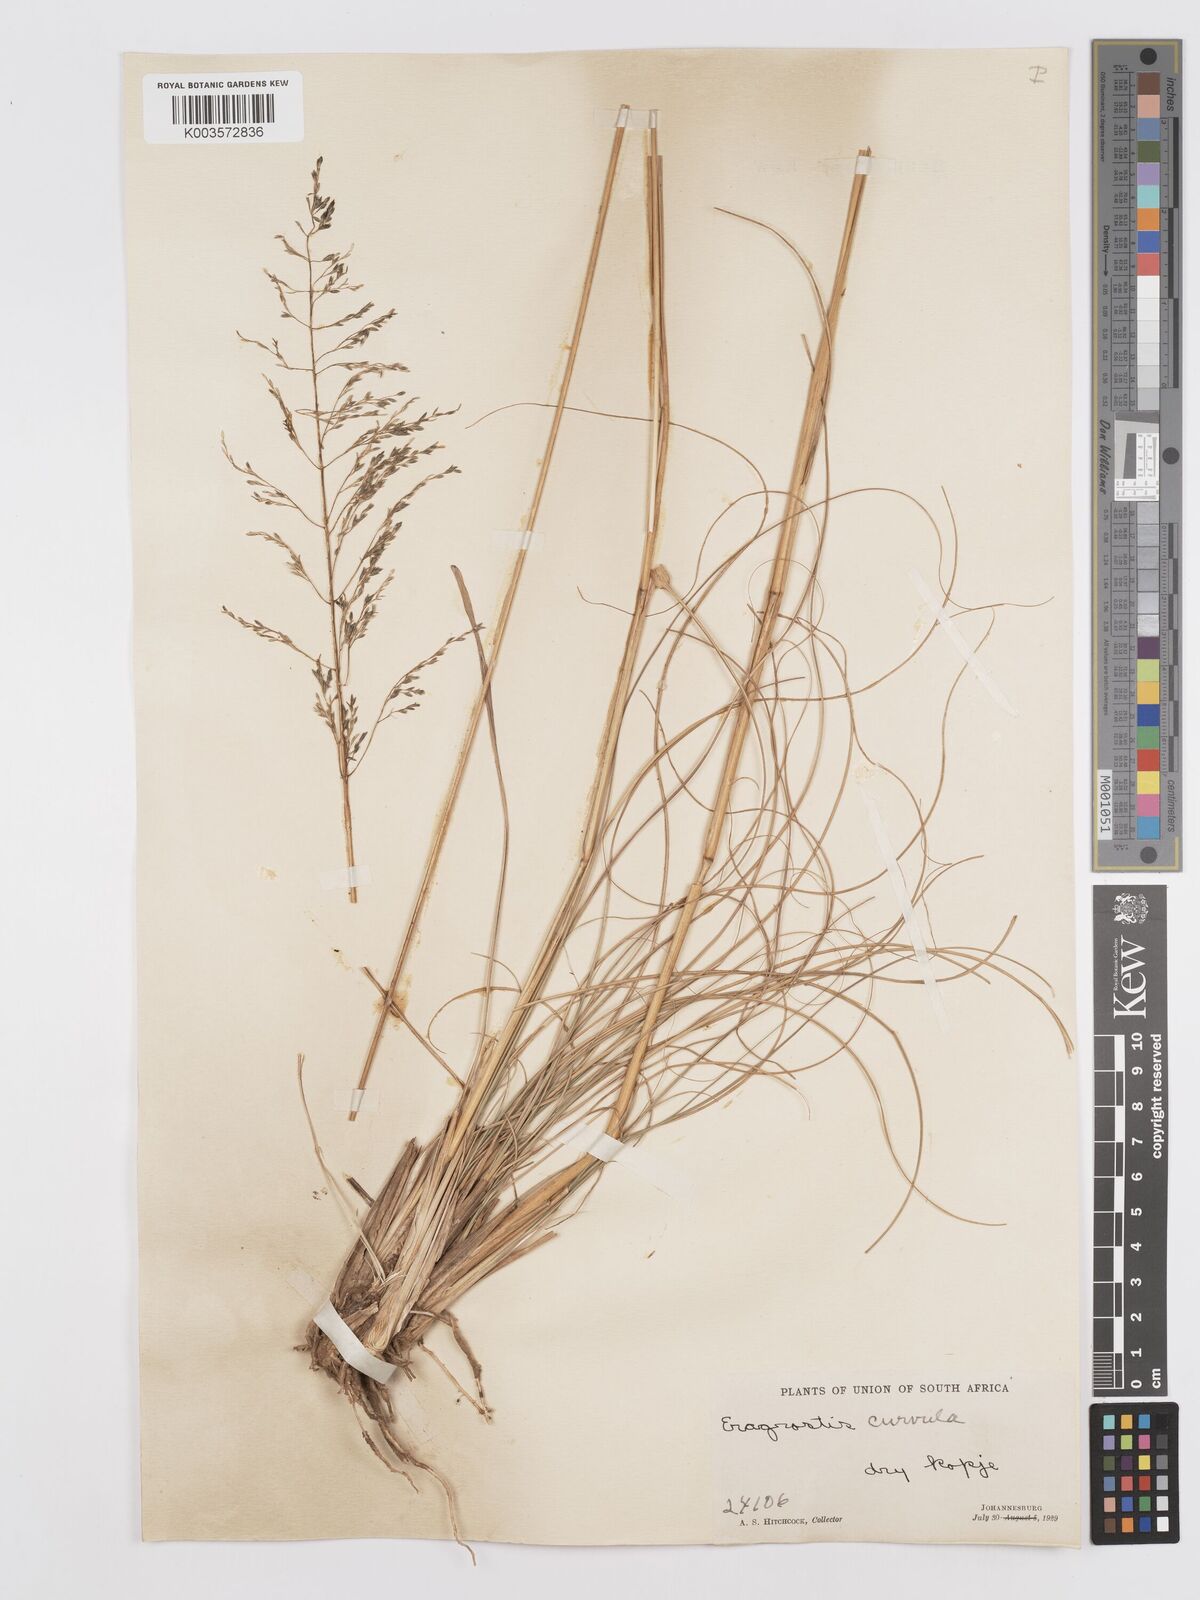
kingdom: Plantae
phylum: Tracheophyta
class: Liliopsida
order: Poales
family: Poaceae
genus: Eragrostis
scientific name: Eragrostis curvula
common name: African love-grass
